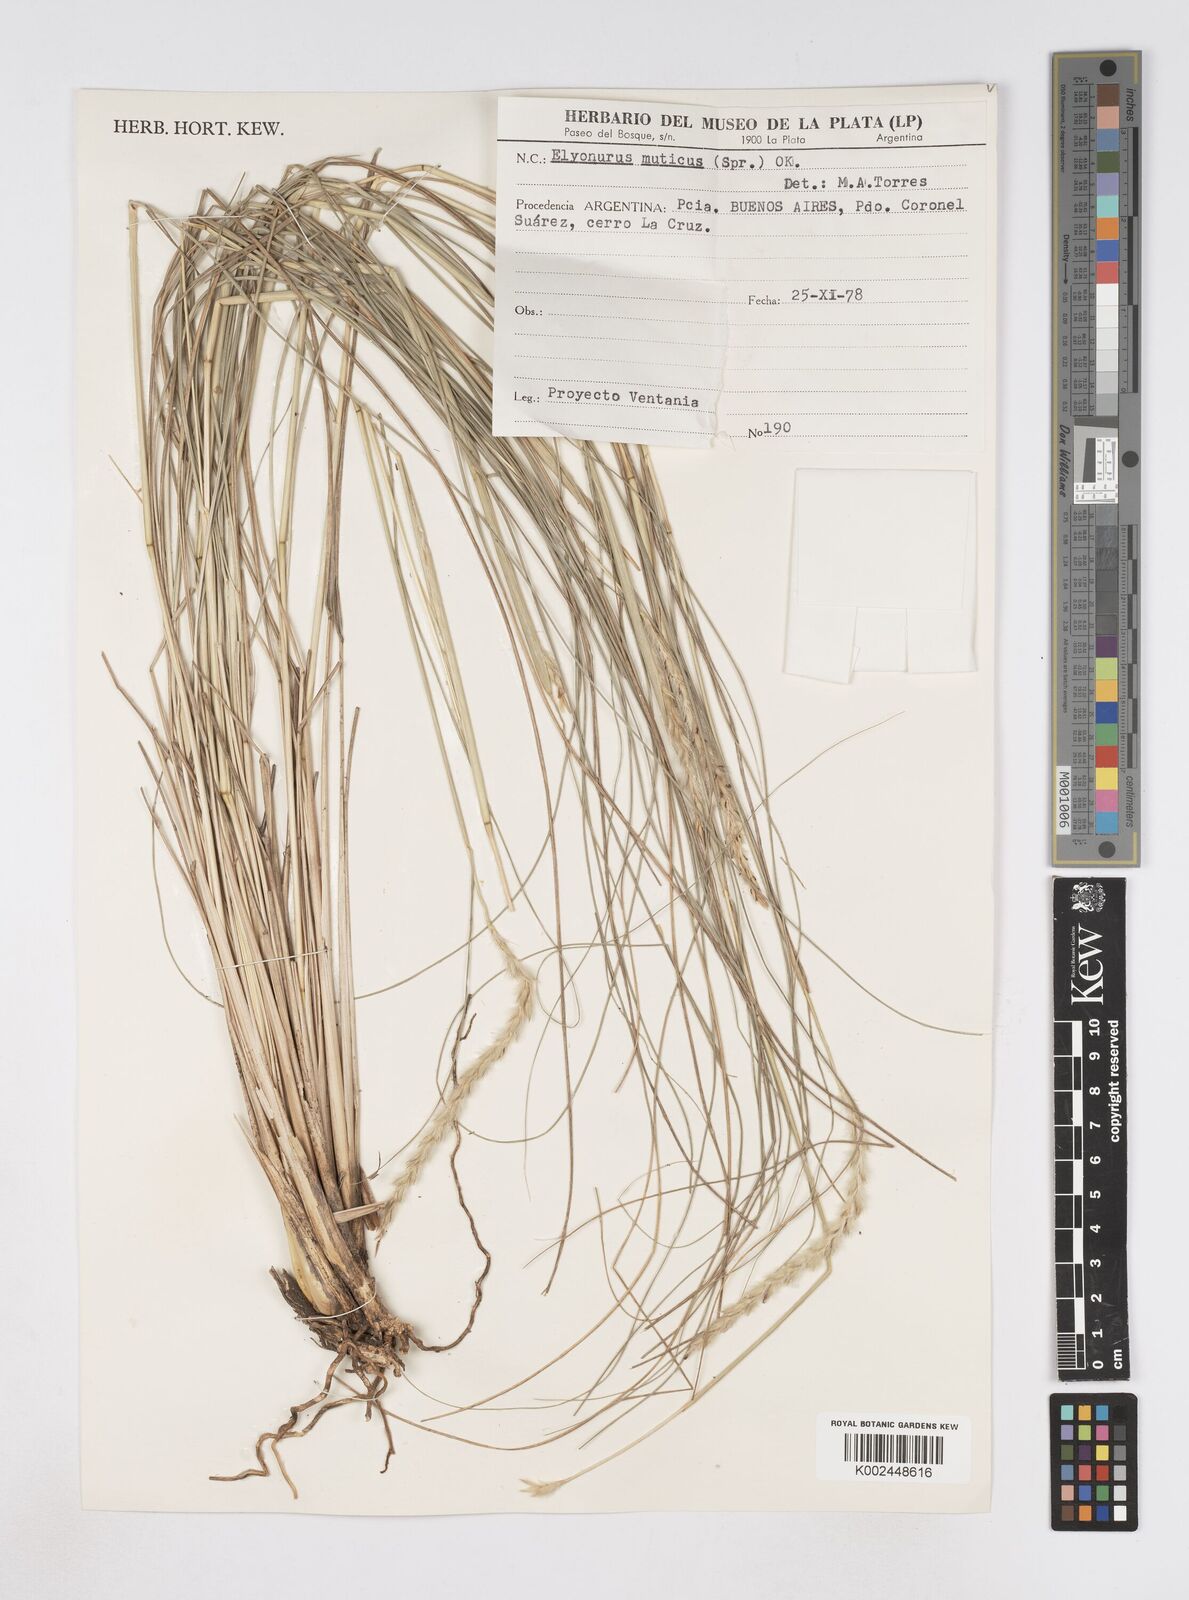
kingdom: Plantae
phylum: Tracheophyta
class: Liliopsida
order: Poales
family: Poaceae
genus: Elionurus
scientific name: Elionurus muticus
